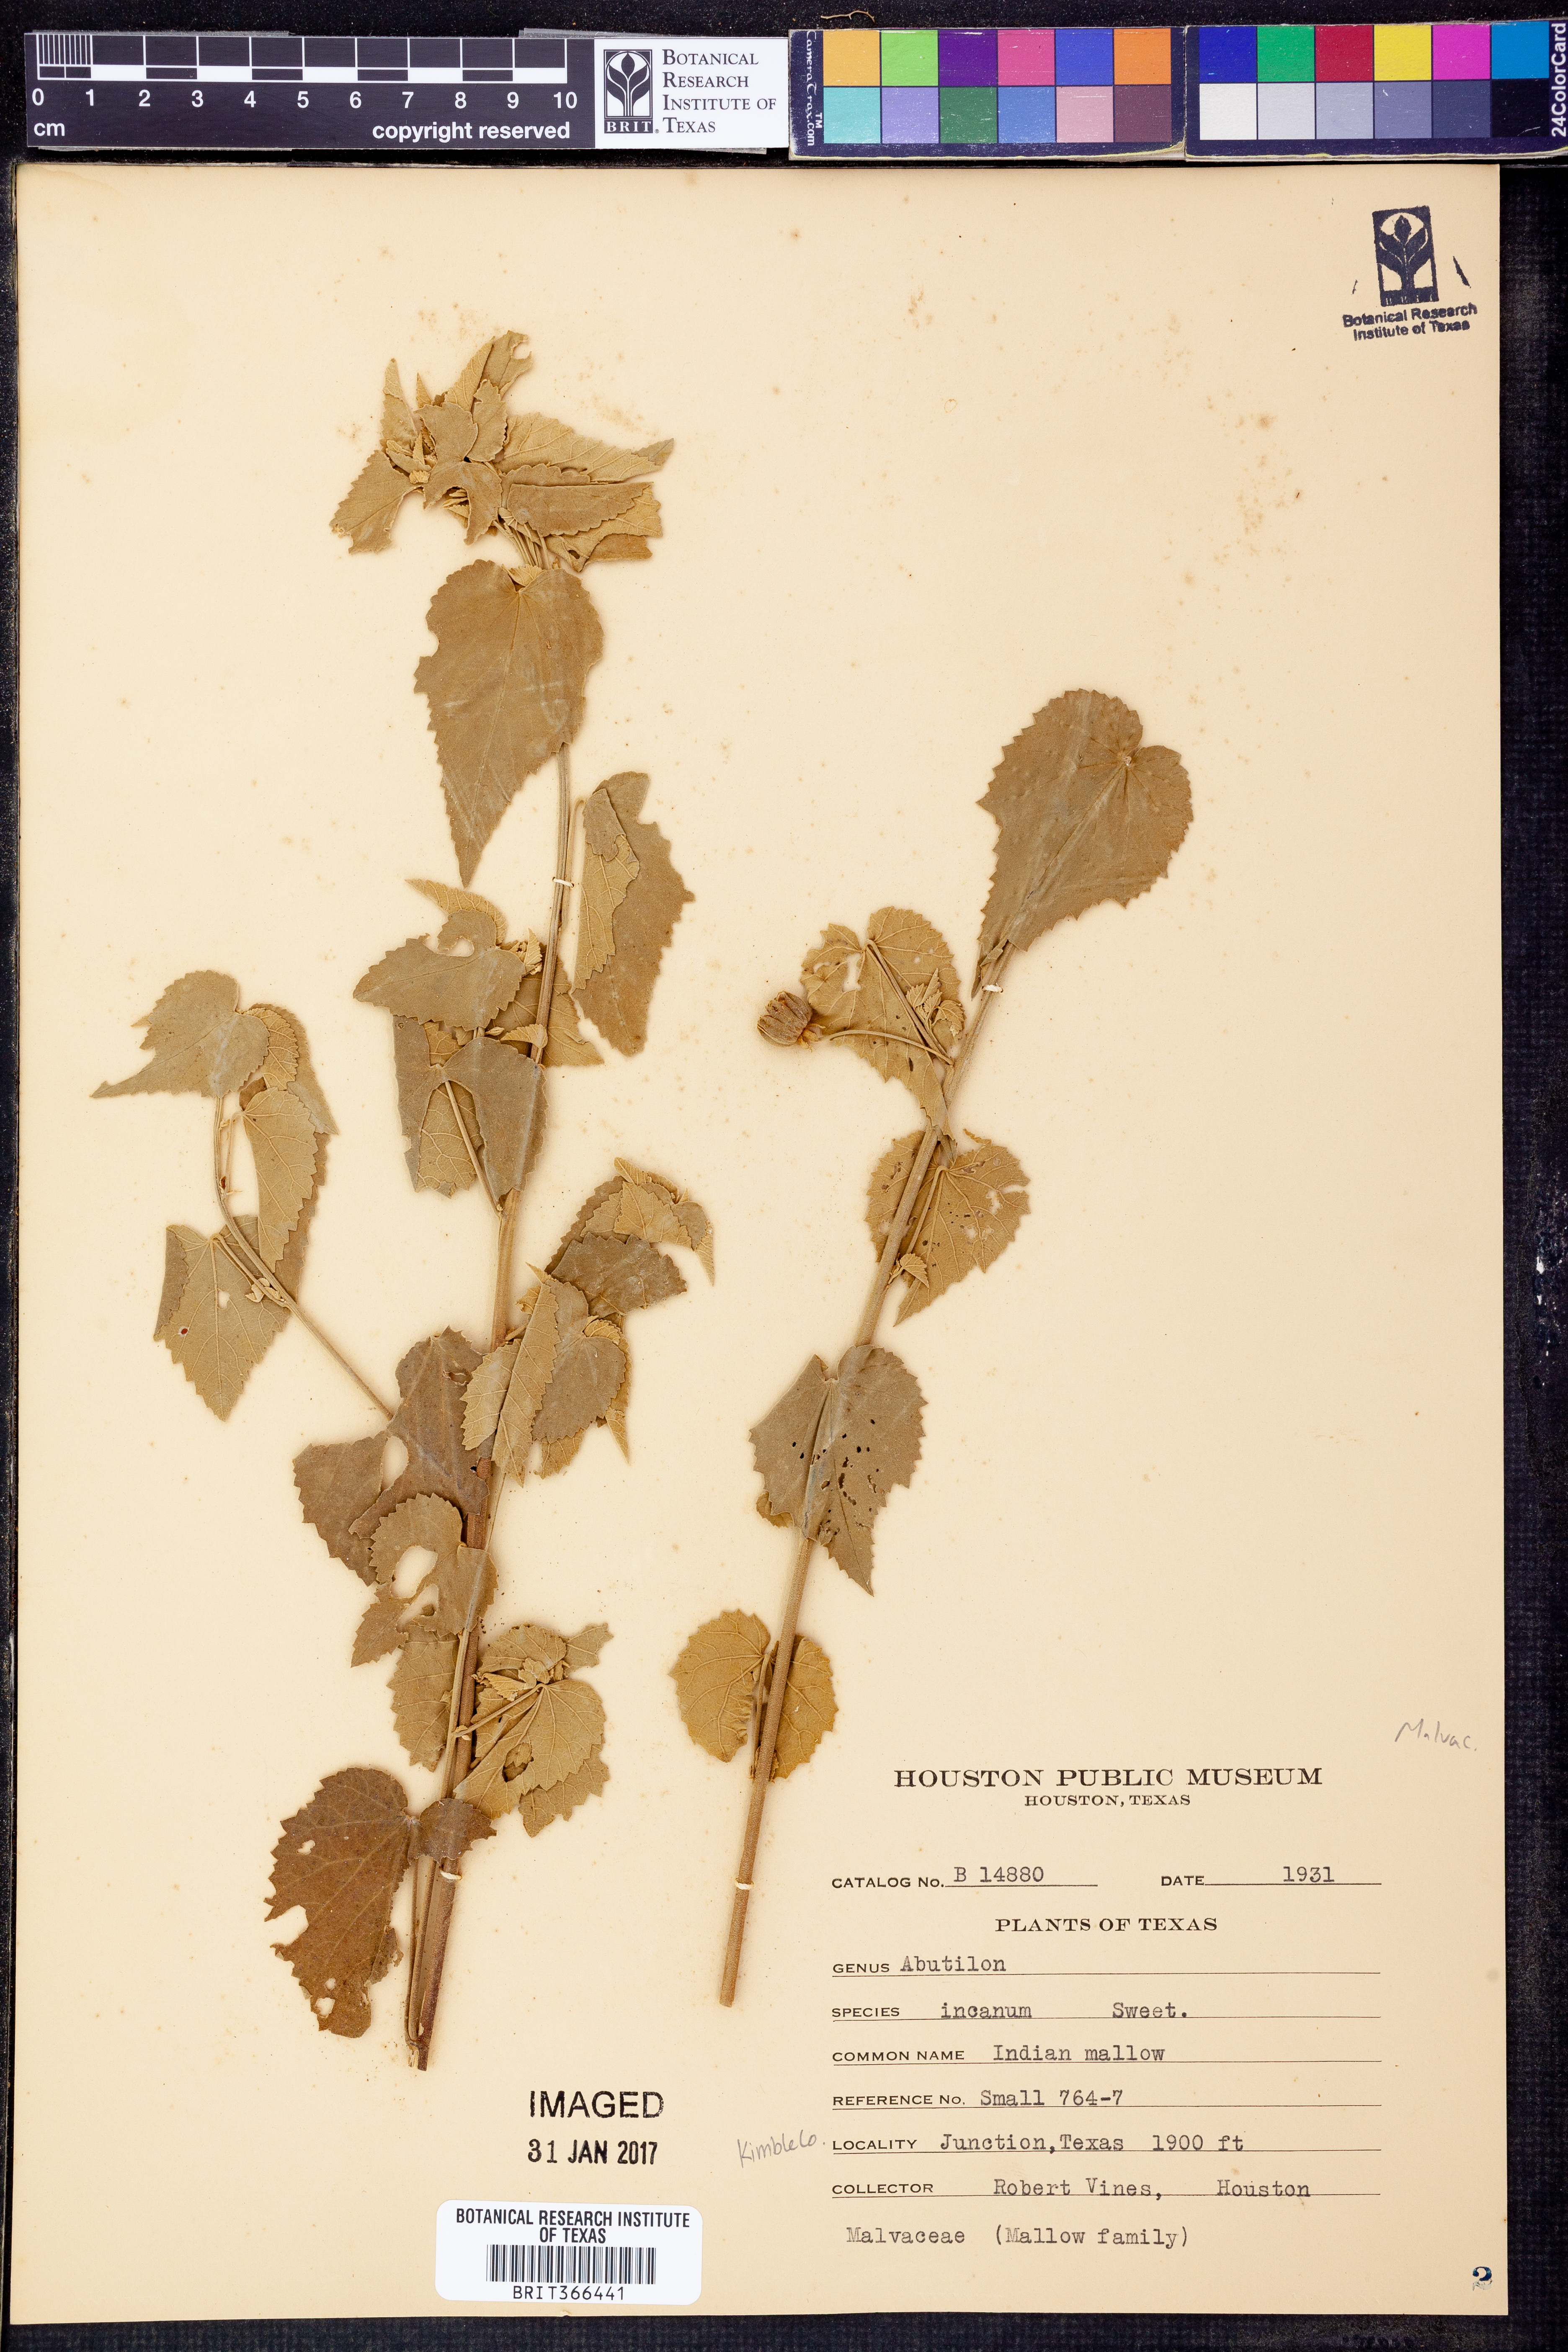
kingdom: Plantae
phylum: Tracheophyta
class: Magnoliopsida
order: Malvales
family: Malvaceae
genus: Abutilon
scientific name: Abutilon incanum
